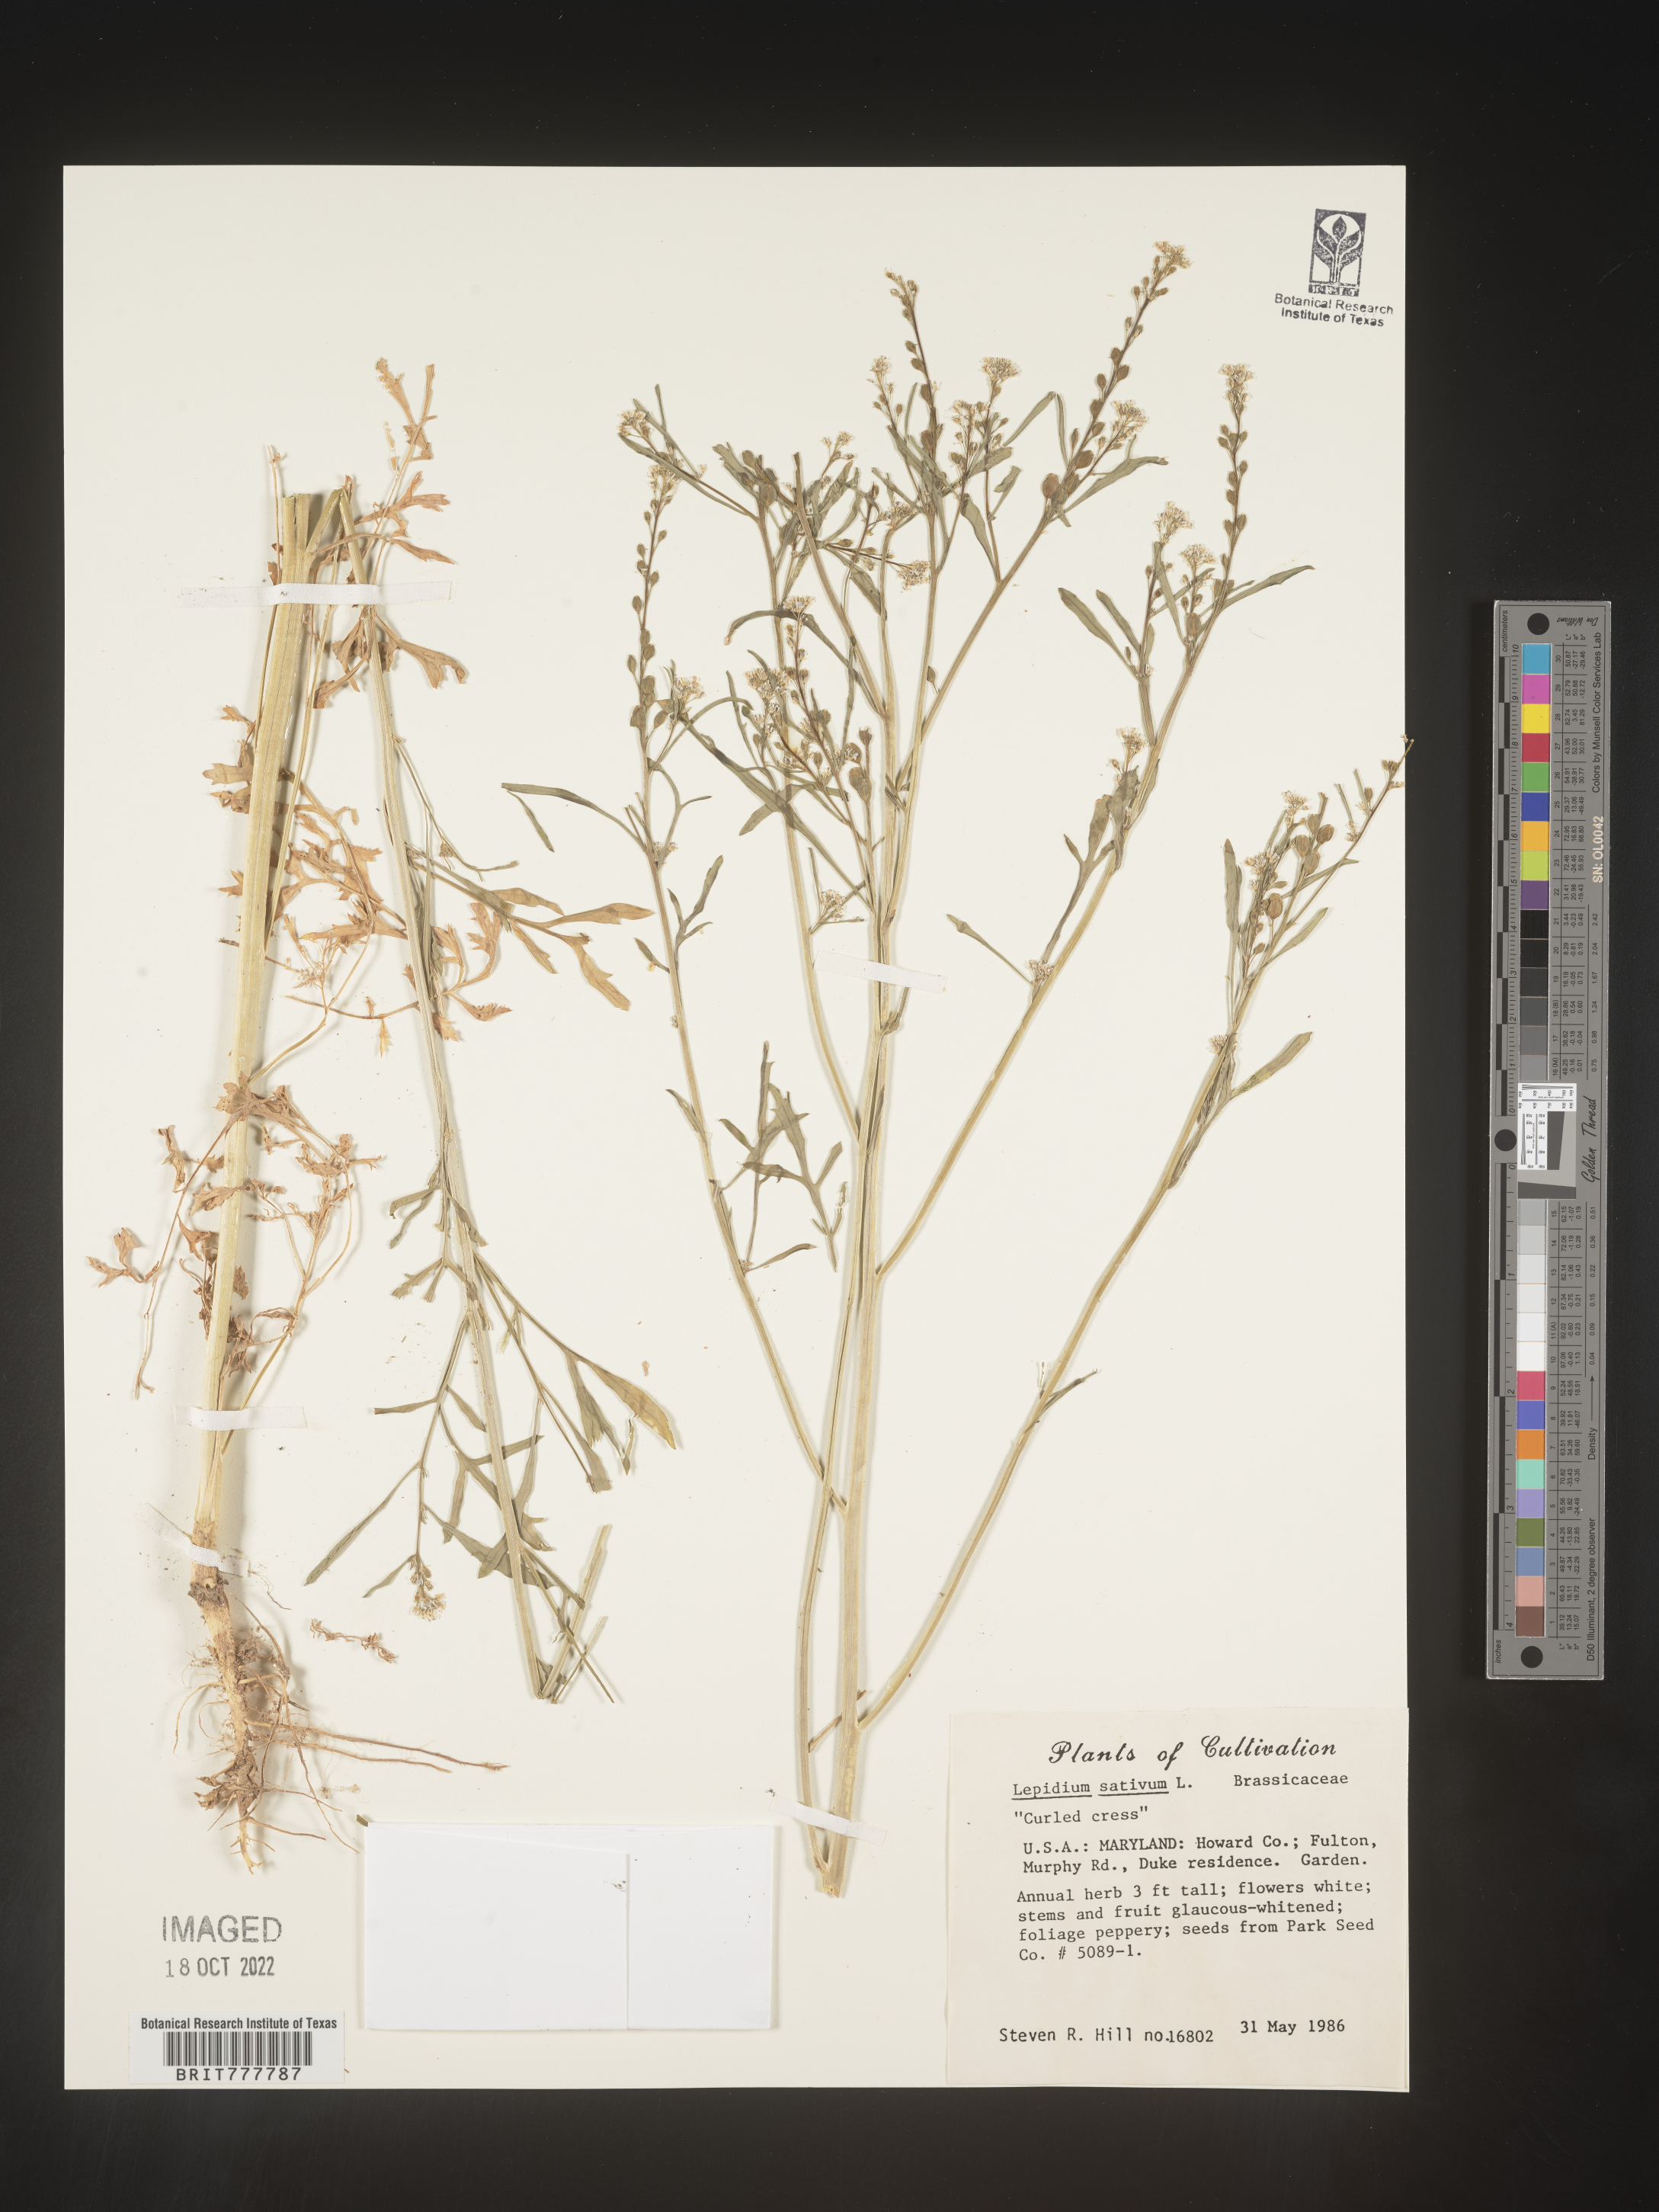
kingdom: Plantae
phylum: Tracheophyta
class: Magnoliopsida
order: Brassicales
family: Brassicaceae
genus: Lepidium
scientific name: Lepidium
